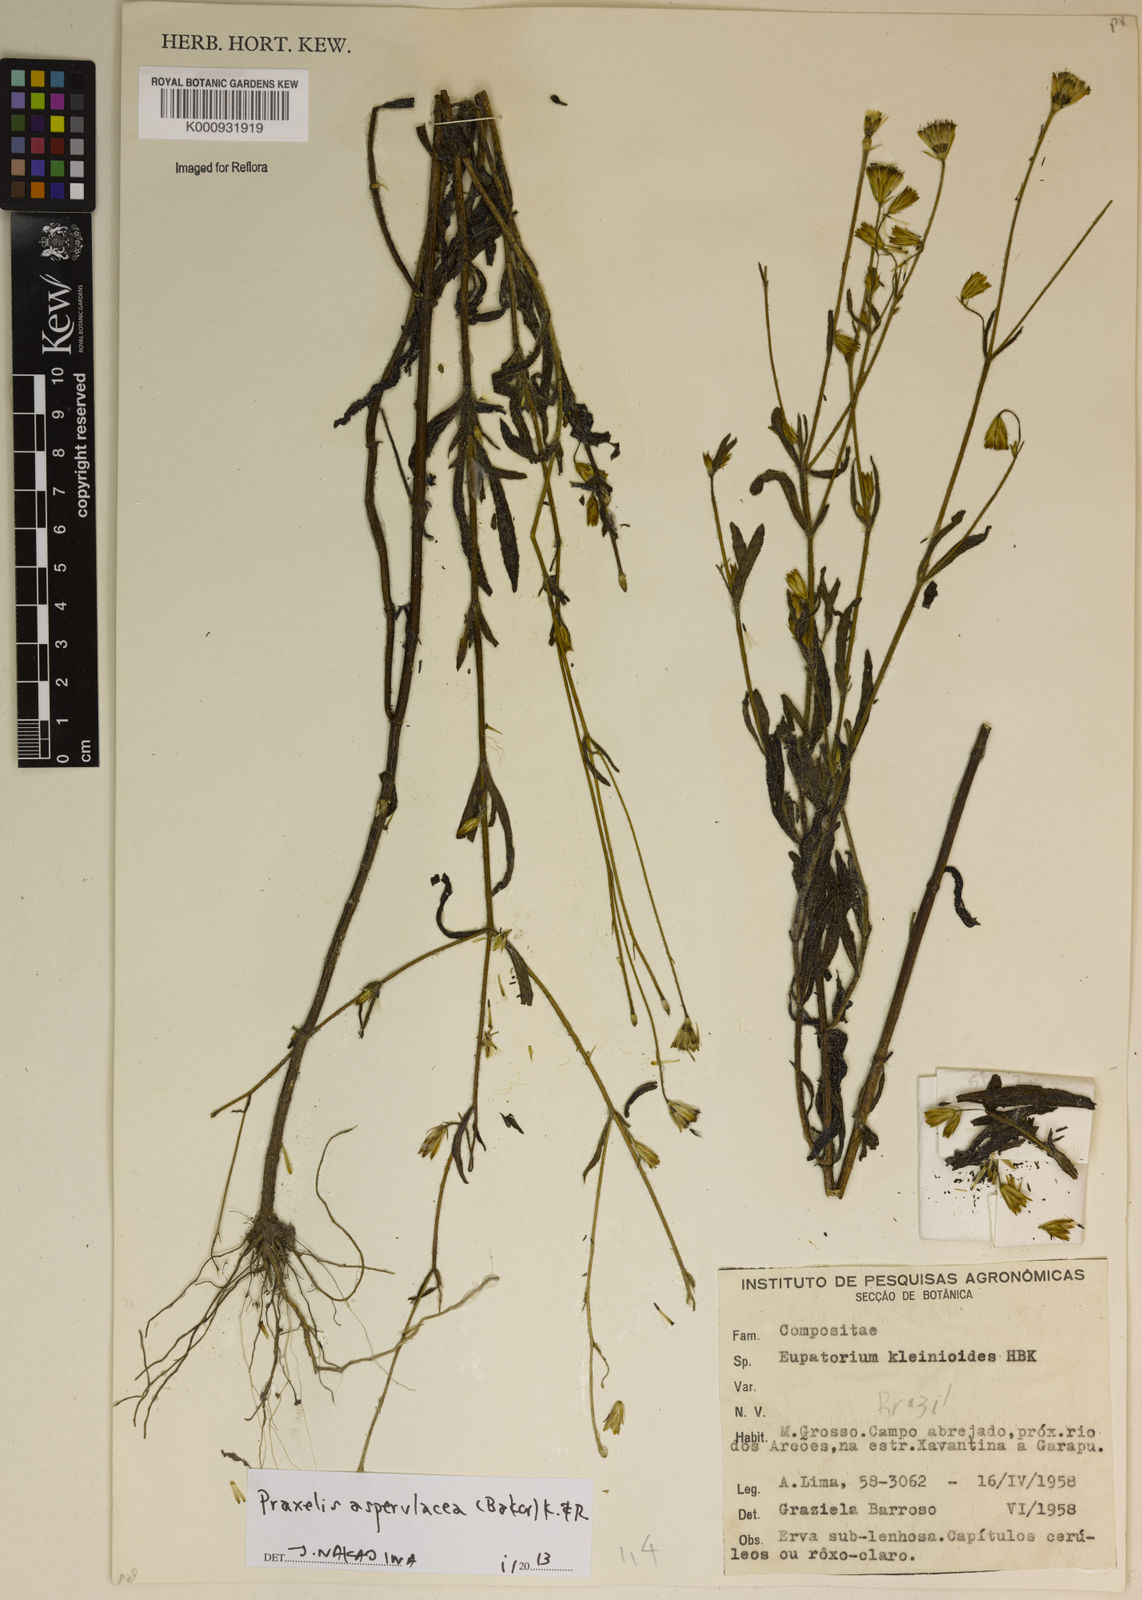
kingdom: Plantae
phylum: Tracheophyta
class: Magnoliopsida
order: Asterales
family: Asteraceae
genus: Praxelis
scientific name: Praxelis asperulacea
